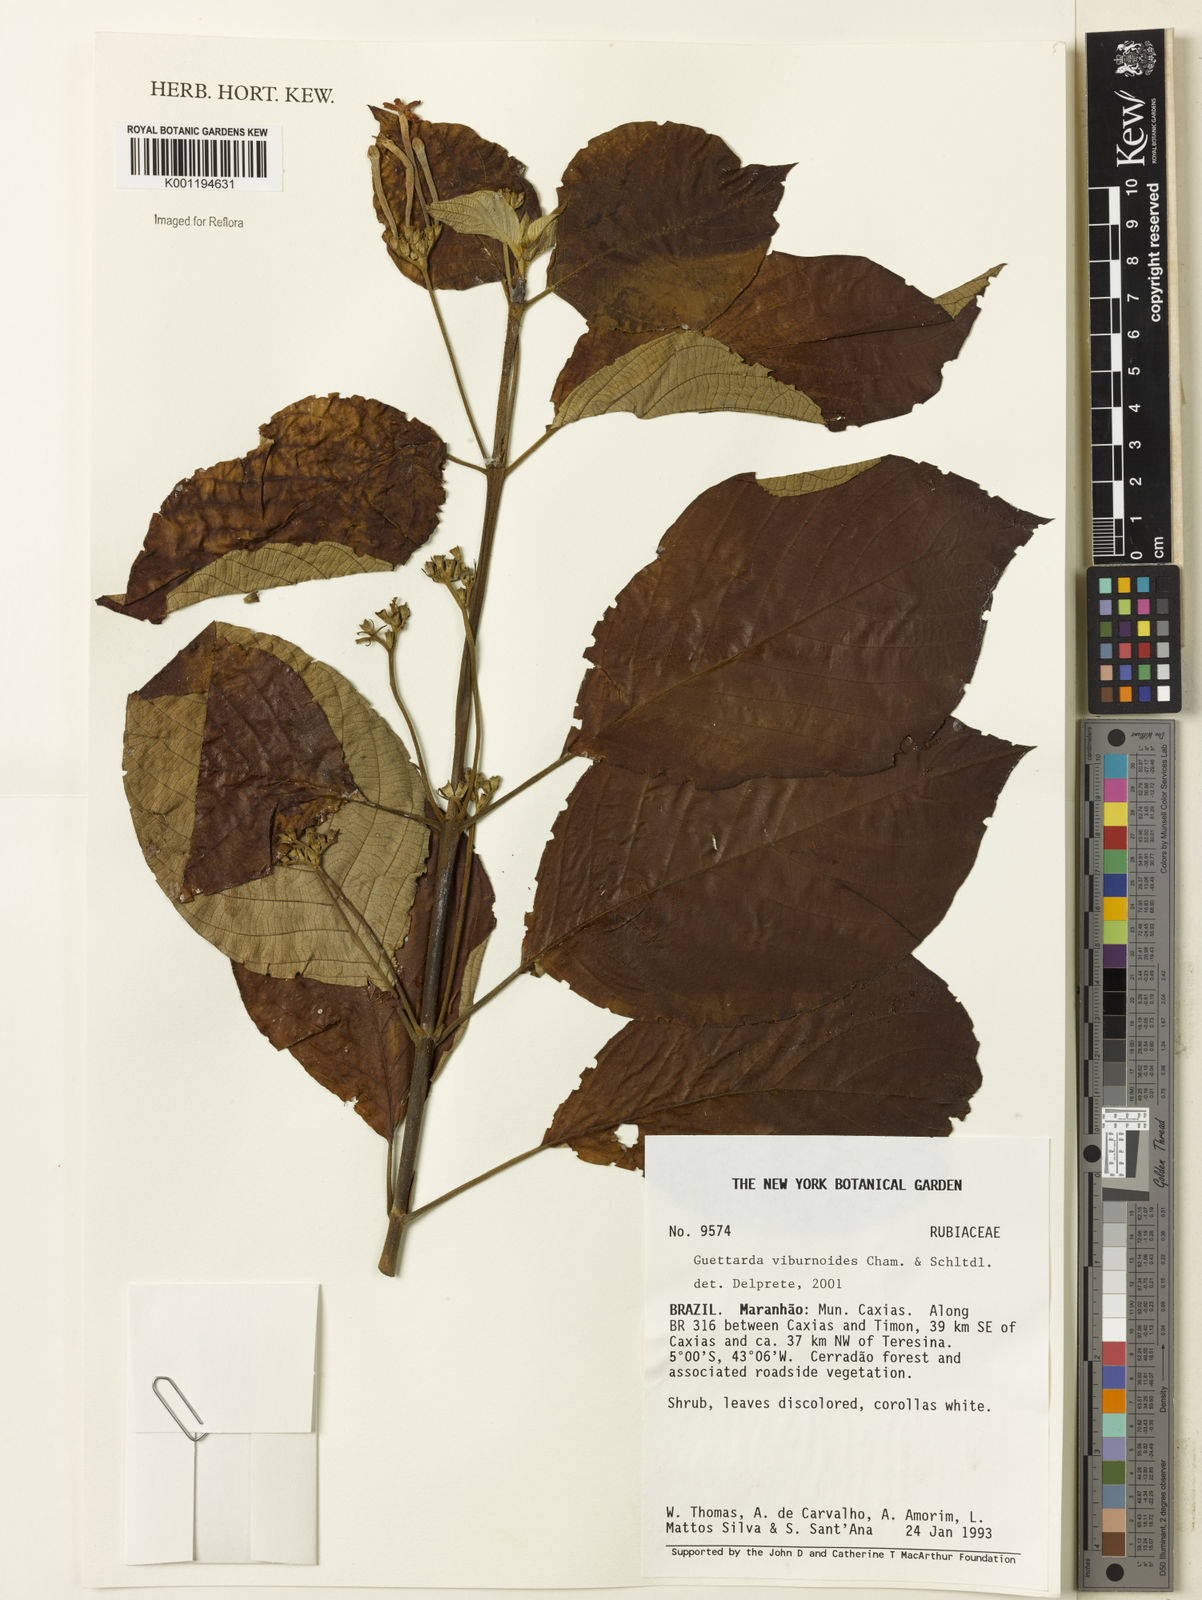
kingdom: Plantae
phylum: Tracheophyta
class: Magnoliopsida
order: Gentianales
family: Rubiaceae
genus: Guettarda
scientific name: Guettarda viburnoides
